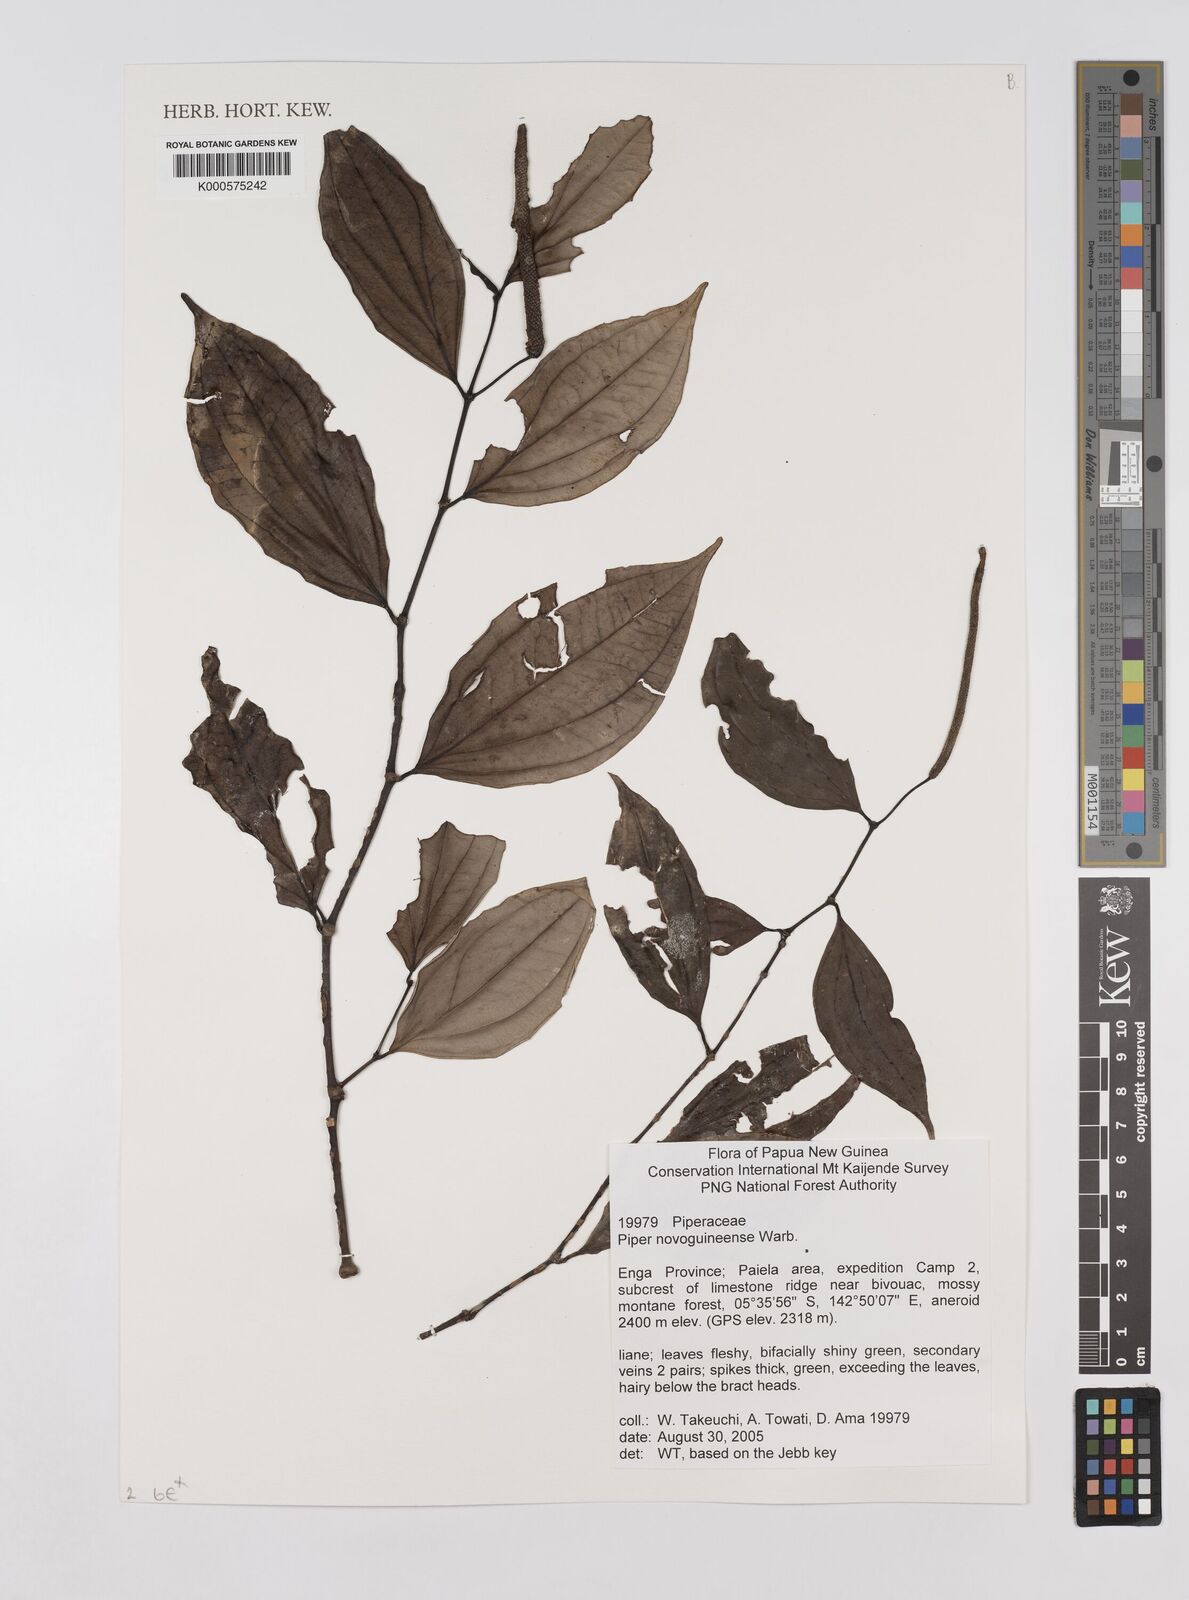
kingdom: Plantae
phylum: Tracheophyta
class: Magnoliopsida
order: Piperales
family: Piperaceae
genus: Piper
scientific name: Piper macropiper
